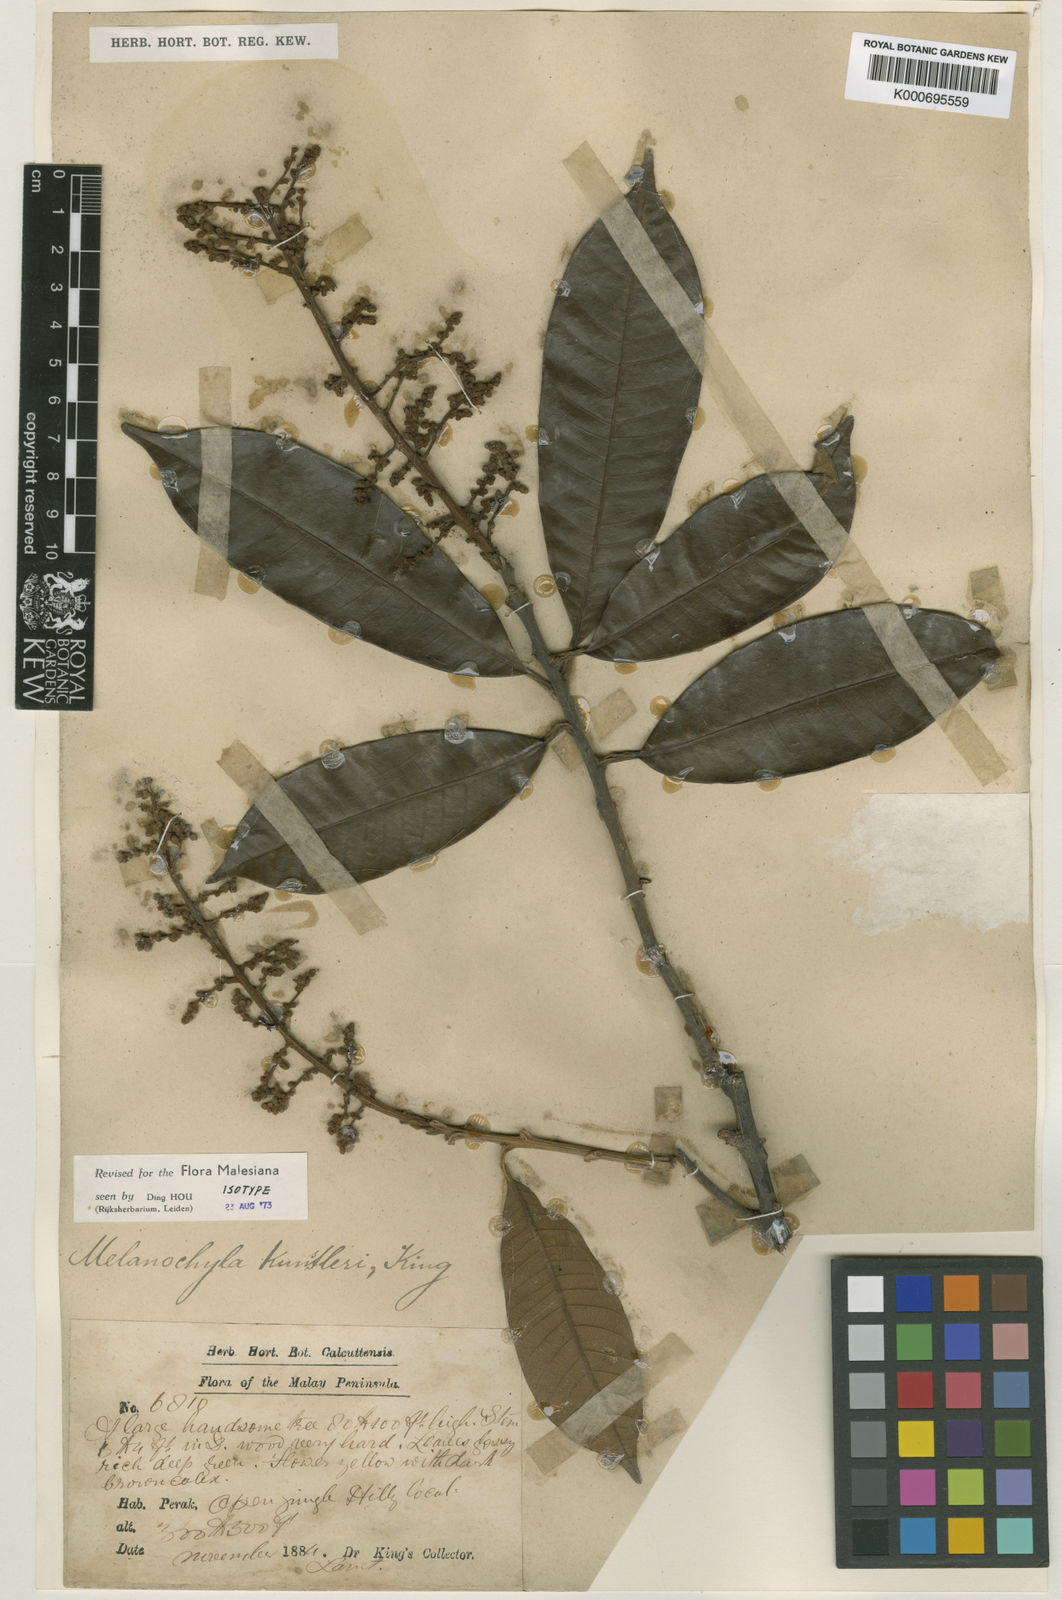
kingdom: Plantae
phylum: Tracheophyta
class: Magnoliopsida
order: Sapindales
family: Anacardiaceae
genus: Melanochyla
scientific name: Melanochyla kunstleri
